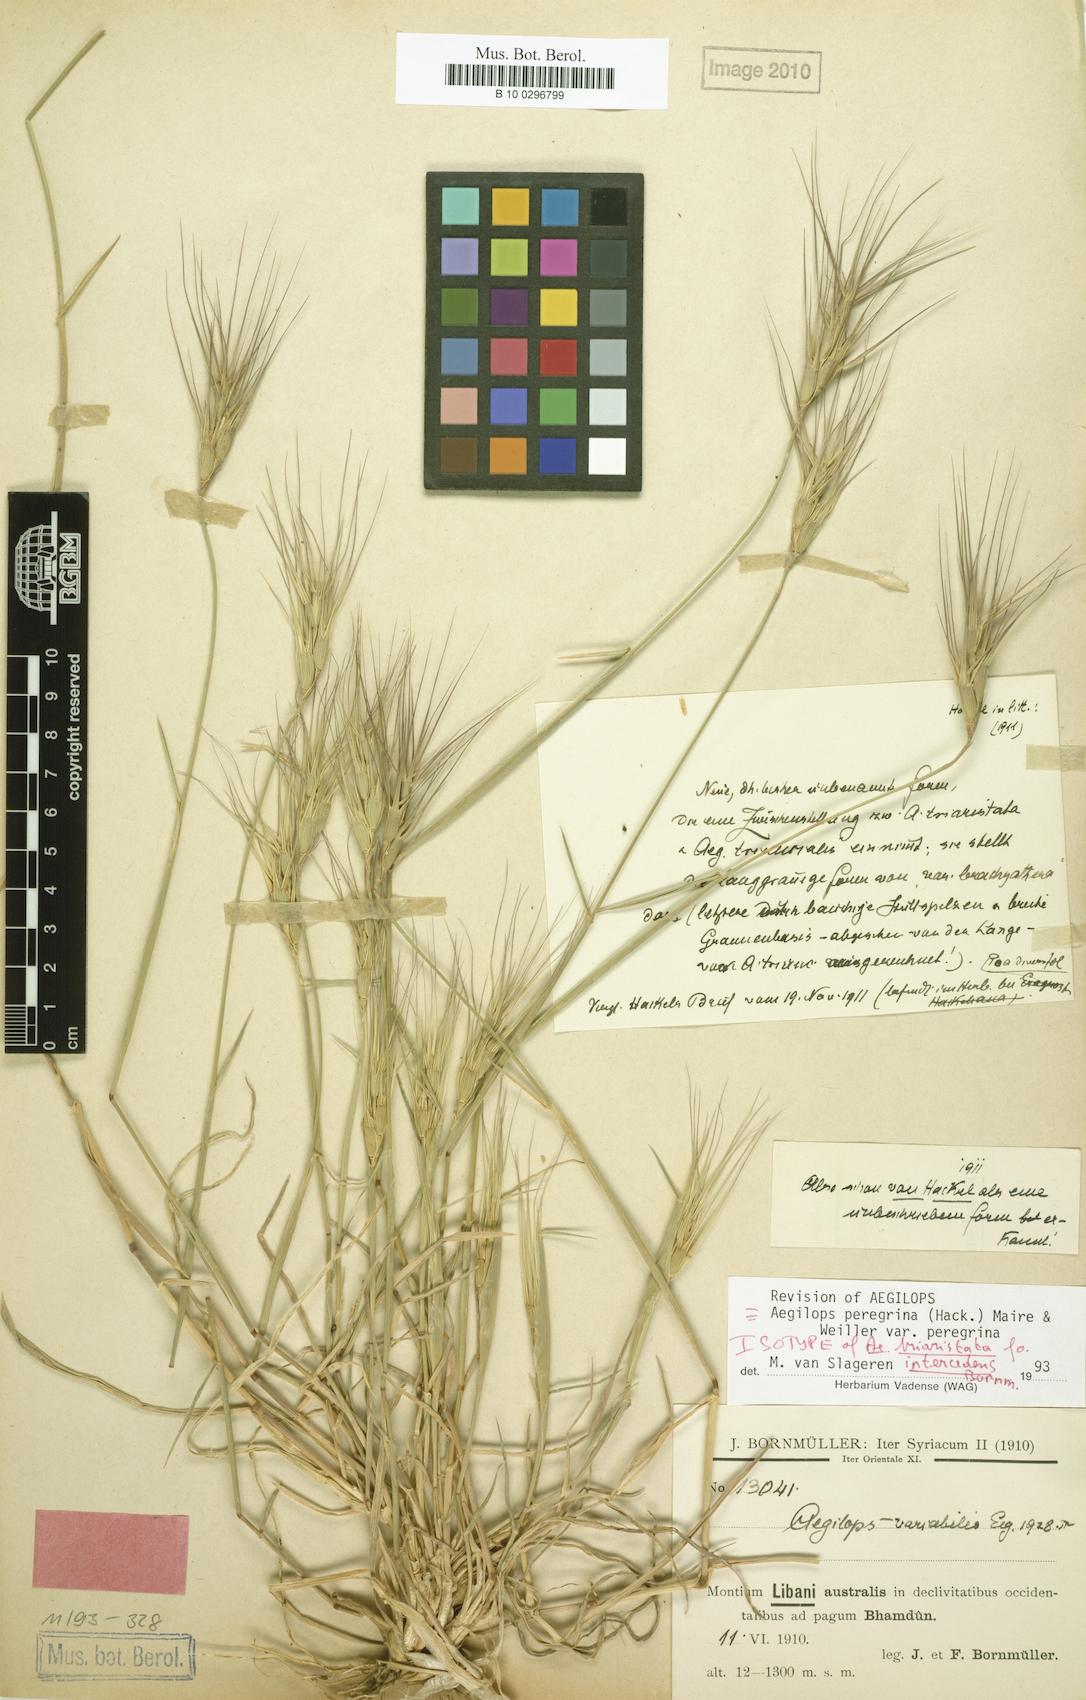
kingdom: Plantae
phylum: Tracheophyta
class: Liliopsida
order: Poales
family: Poaceae
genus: Aegilops
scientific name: Aegilops
